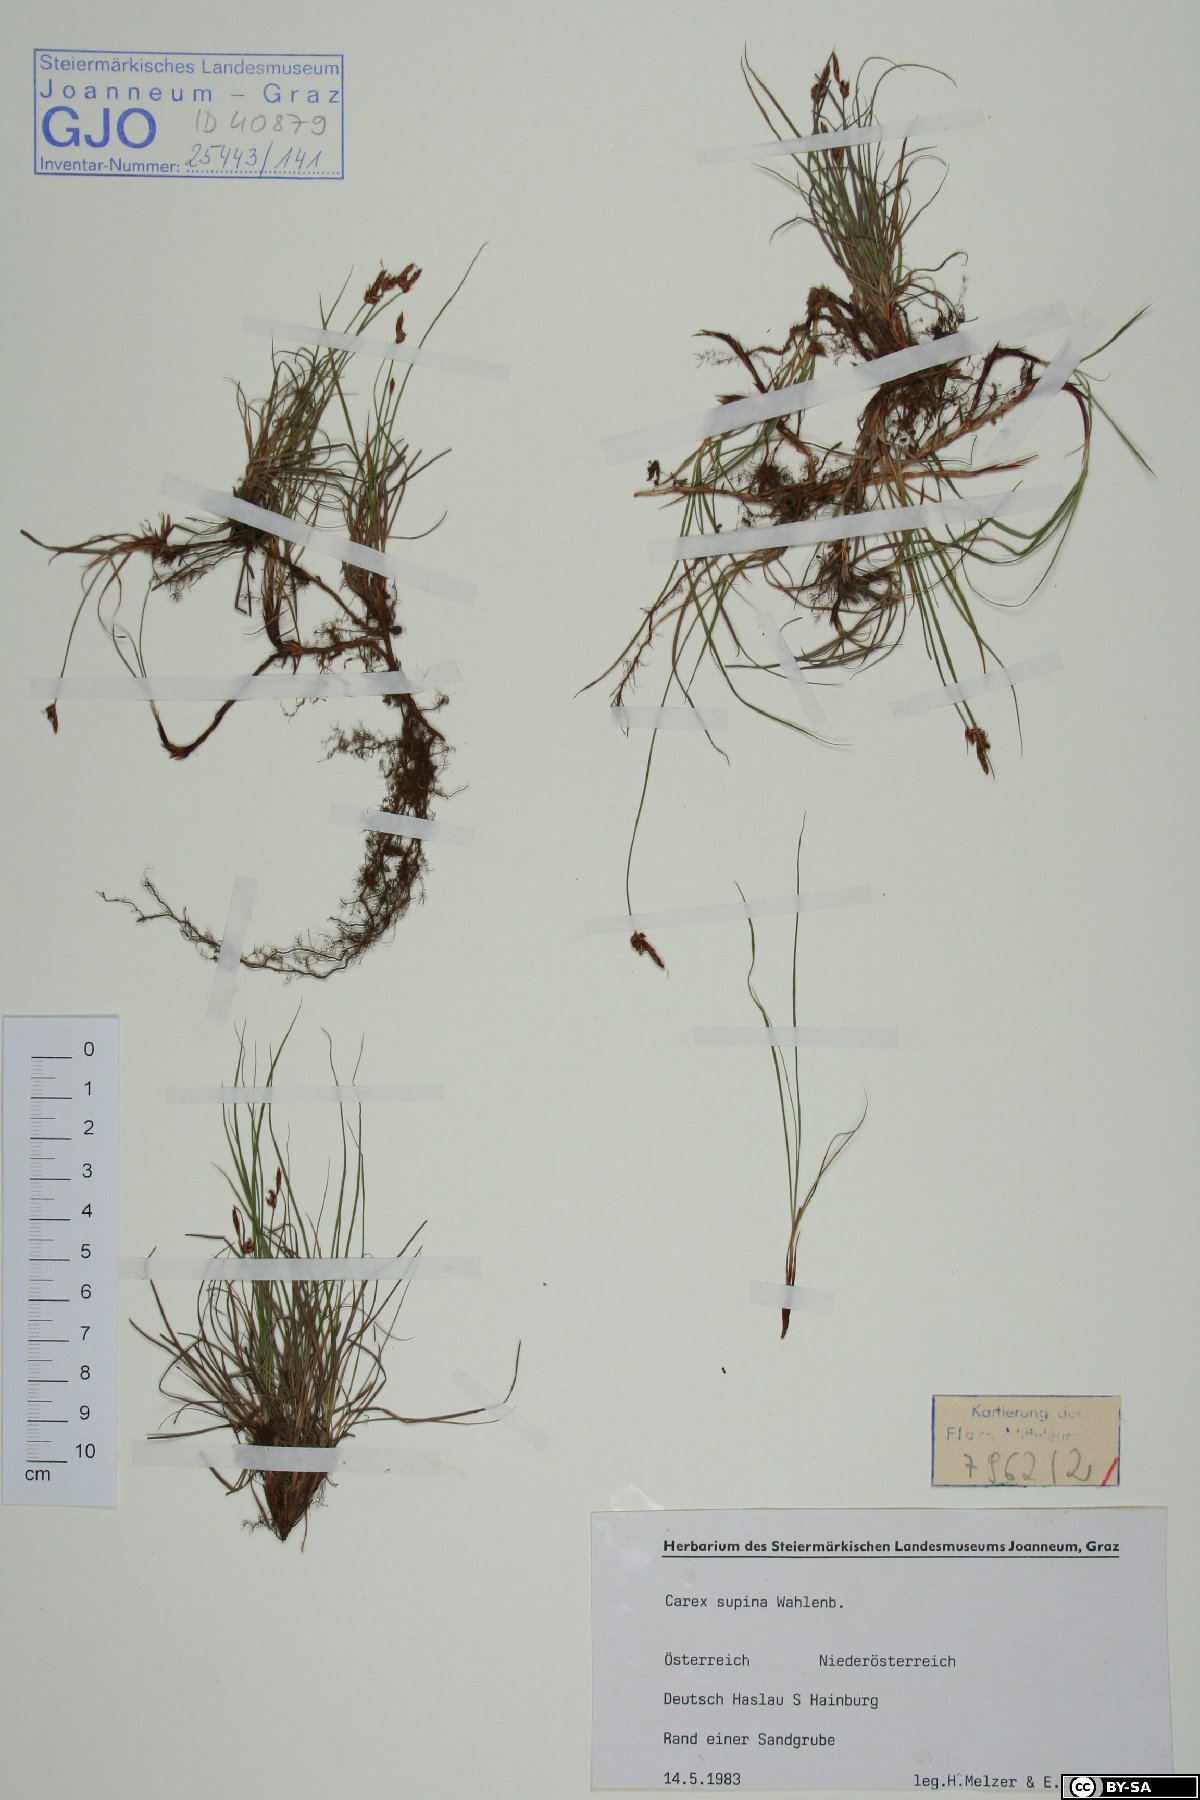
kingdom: Plantae
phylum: Tracheophyta
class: Liliopsida
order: Poales
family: Cyperaceae
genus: Carex
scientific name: Carex supina
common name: Lying-back sedge
